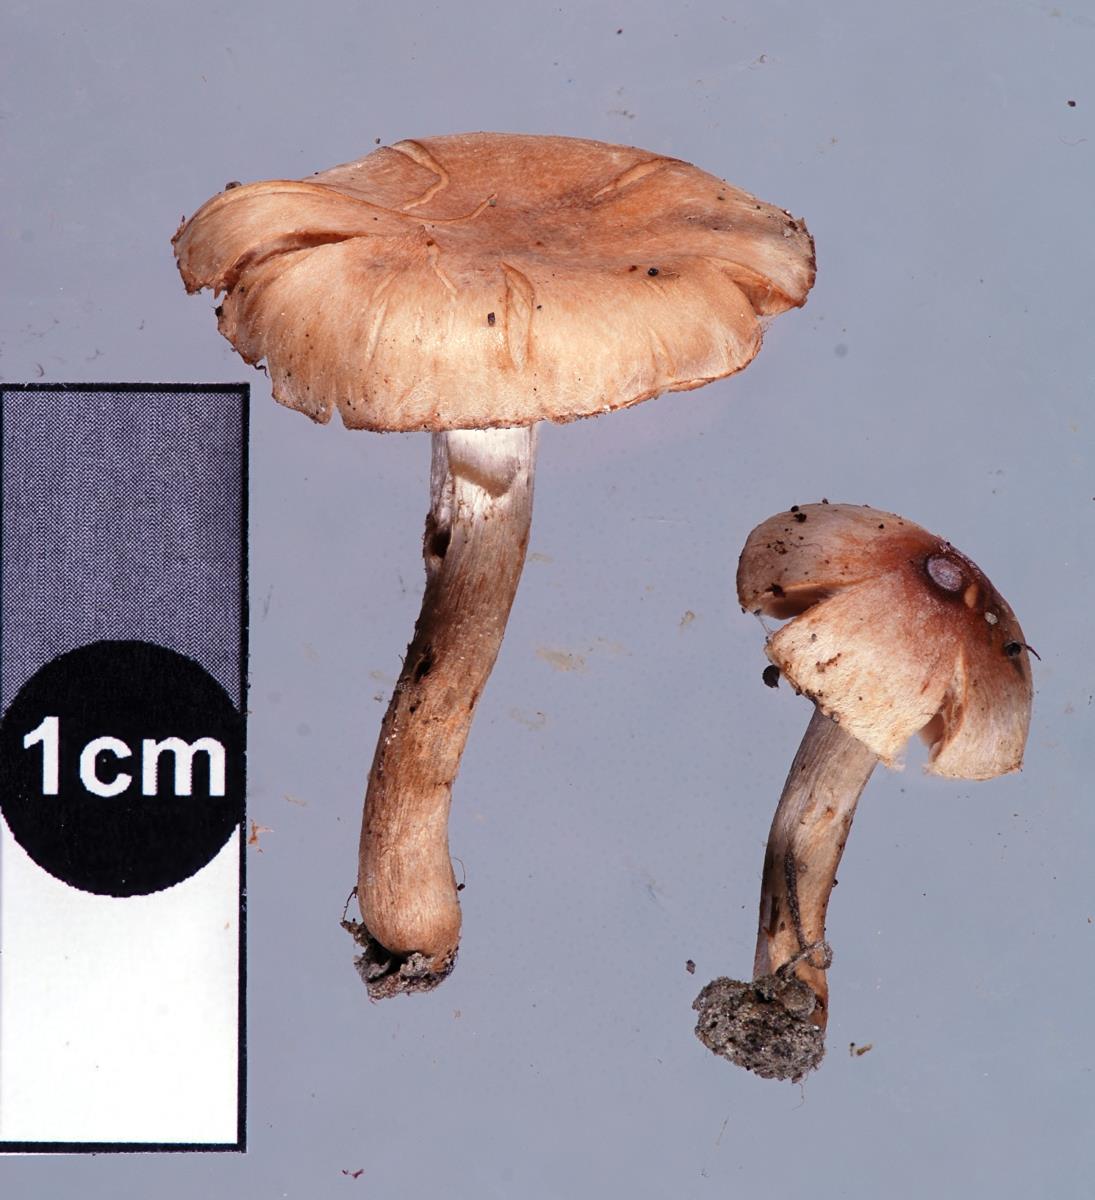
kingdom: Fungi
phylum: Basidiomycota
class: Agaricomycetes
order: Agaricales
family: Hymenogastraceae
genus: Hebeloma
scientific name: Hebeloma mesophaeum
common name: Veiled poisonpie
